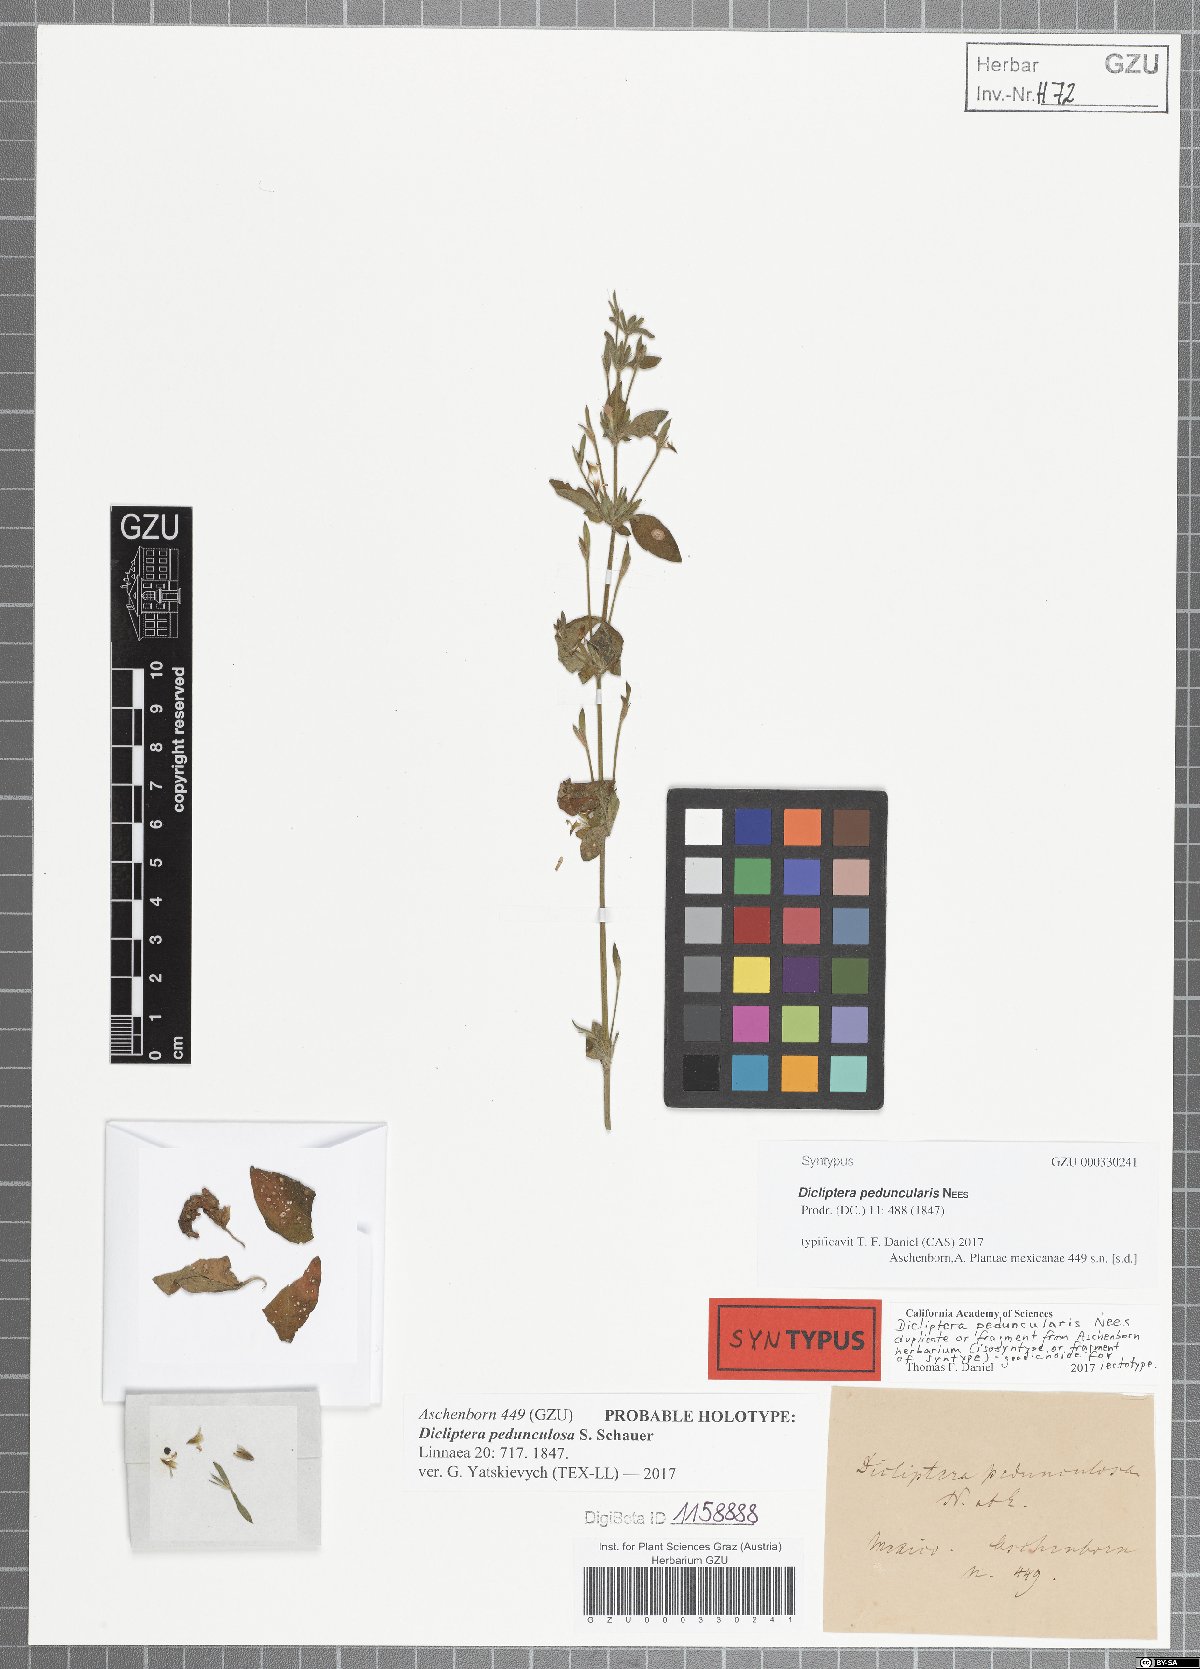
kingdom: Plantae
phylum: Tracheophyta
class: Magnoliopsida
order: Lamiales
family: Acanthaceae
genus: Dicliptera
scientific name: Dicliptera peduncularis
